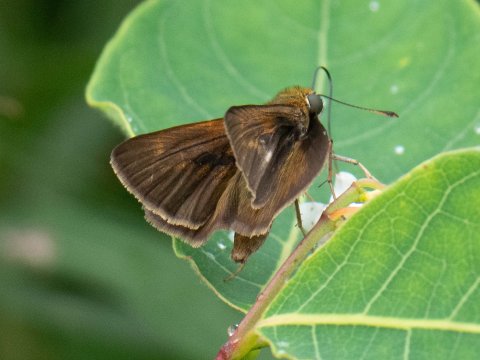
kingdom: Animalia
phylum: Arthropoda
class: Insecta
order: Lepidoptera
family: Hesperiidae
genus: Euphyes
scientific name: Euphyes vestris
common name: Dun Skipper
